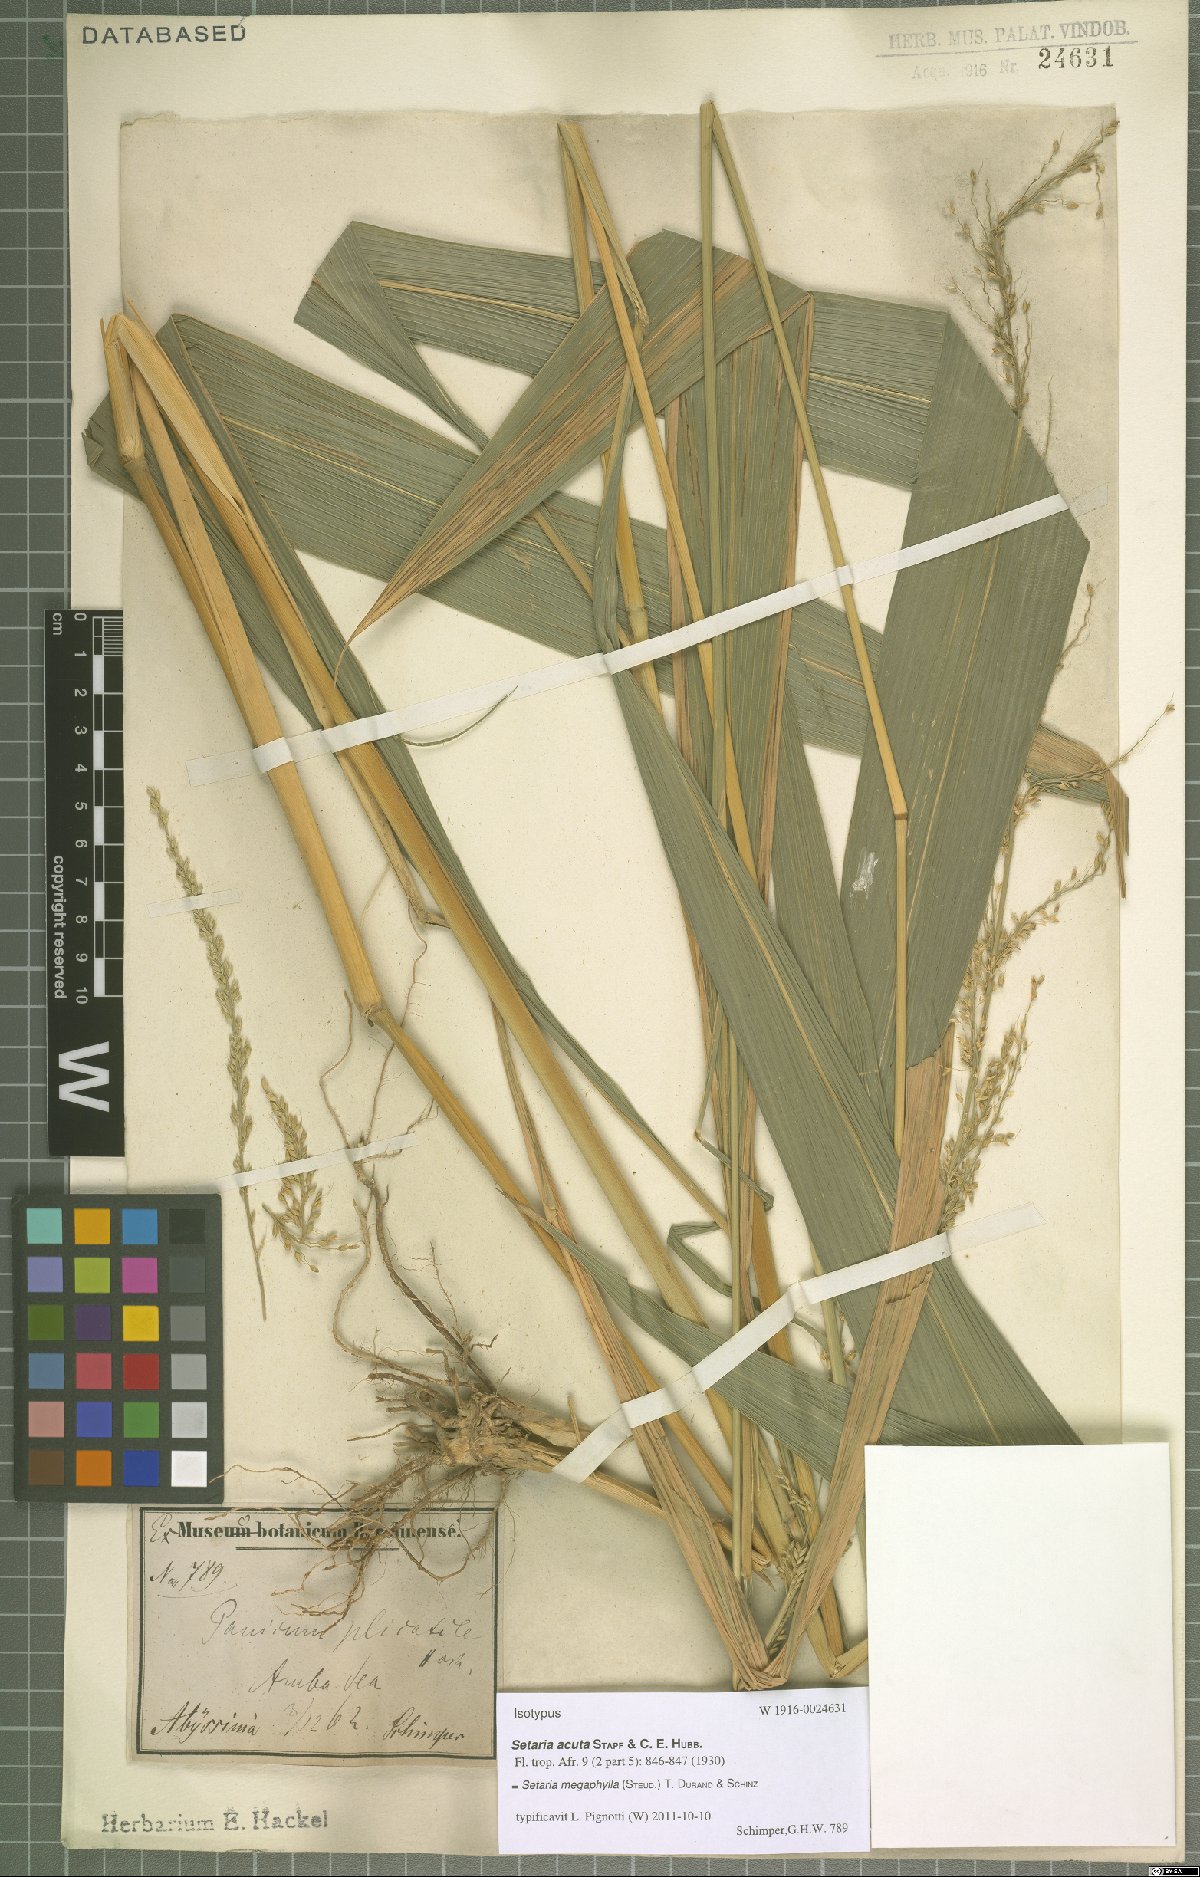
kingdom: Plantae
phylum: Tracheophyta
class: Liliopsida
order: Poales
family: Poaceae
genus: Setaria
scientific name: Setaria megaphylla
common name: Bigleaf bristlegrass
